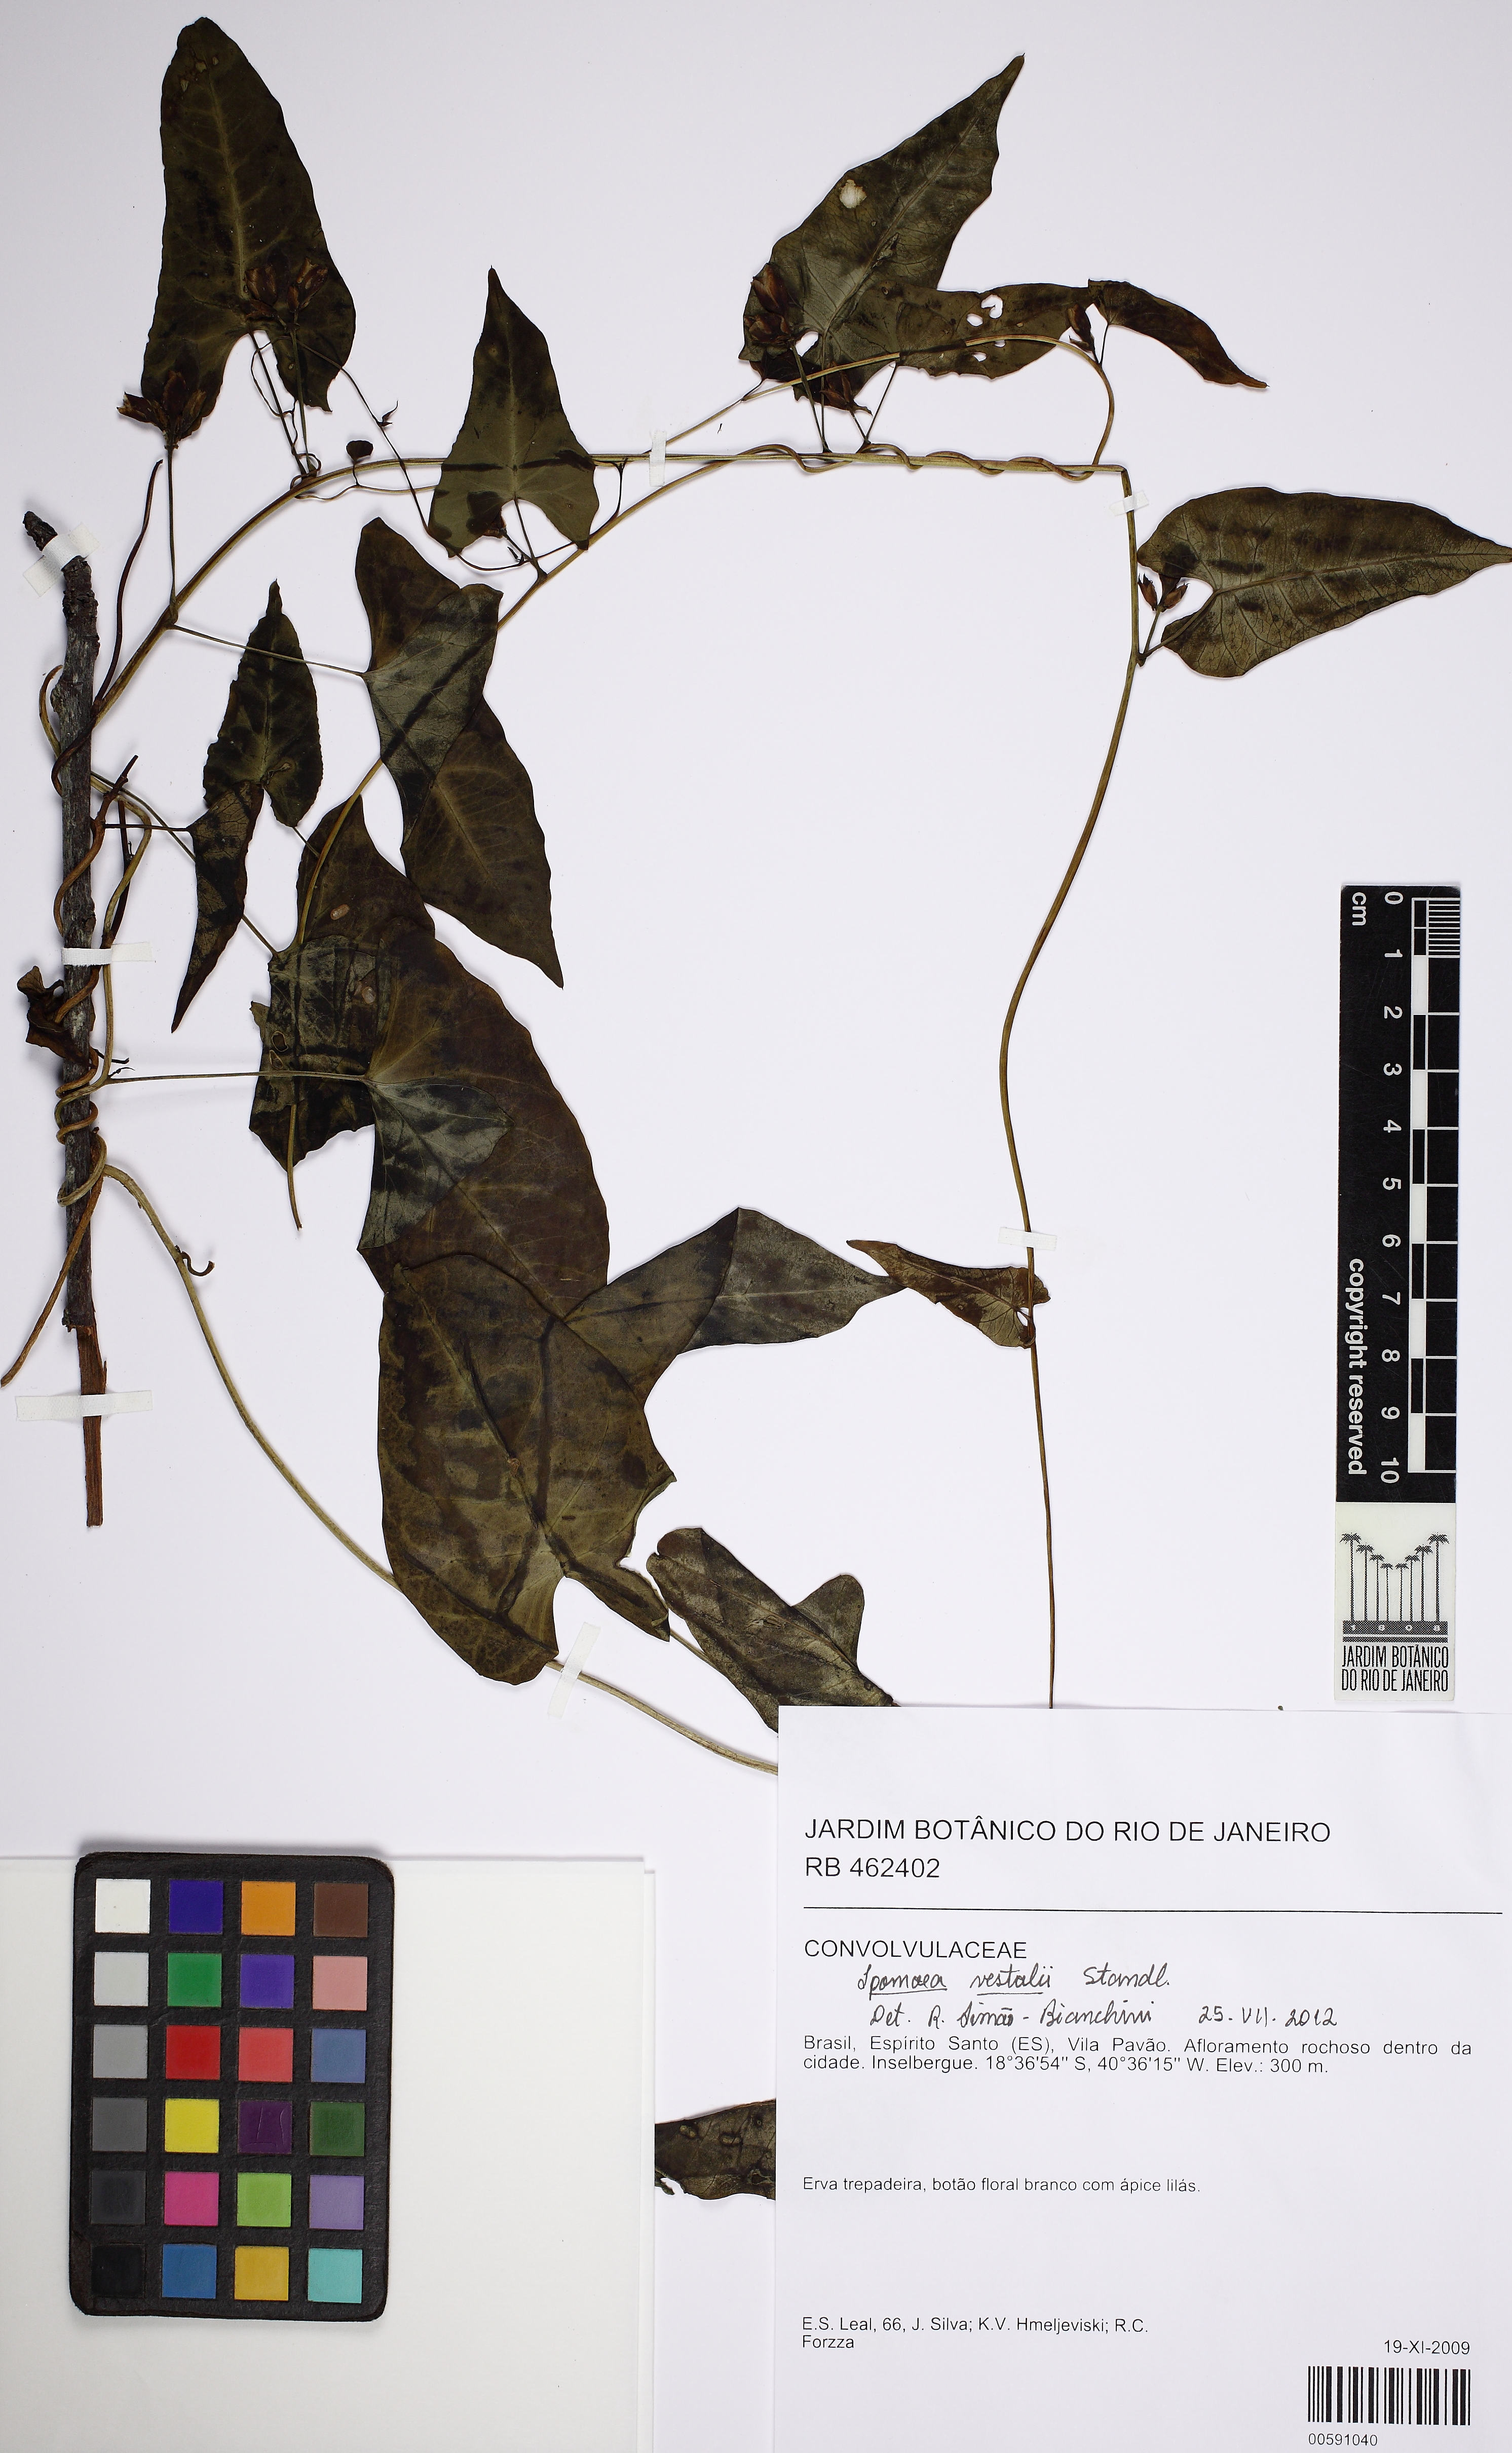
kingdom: Plantae
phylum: Tracheophyta
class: Magnoliopsida
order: Solanales
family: Convolvulaceae
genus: Ipomoea
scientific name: Ipomoea squamosa
